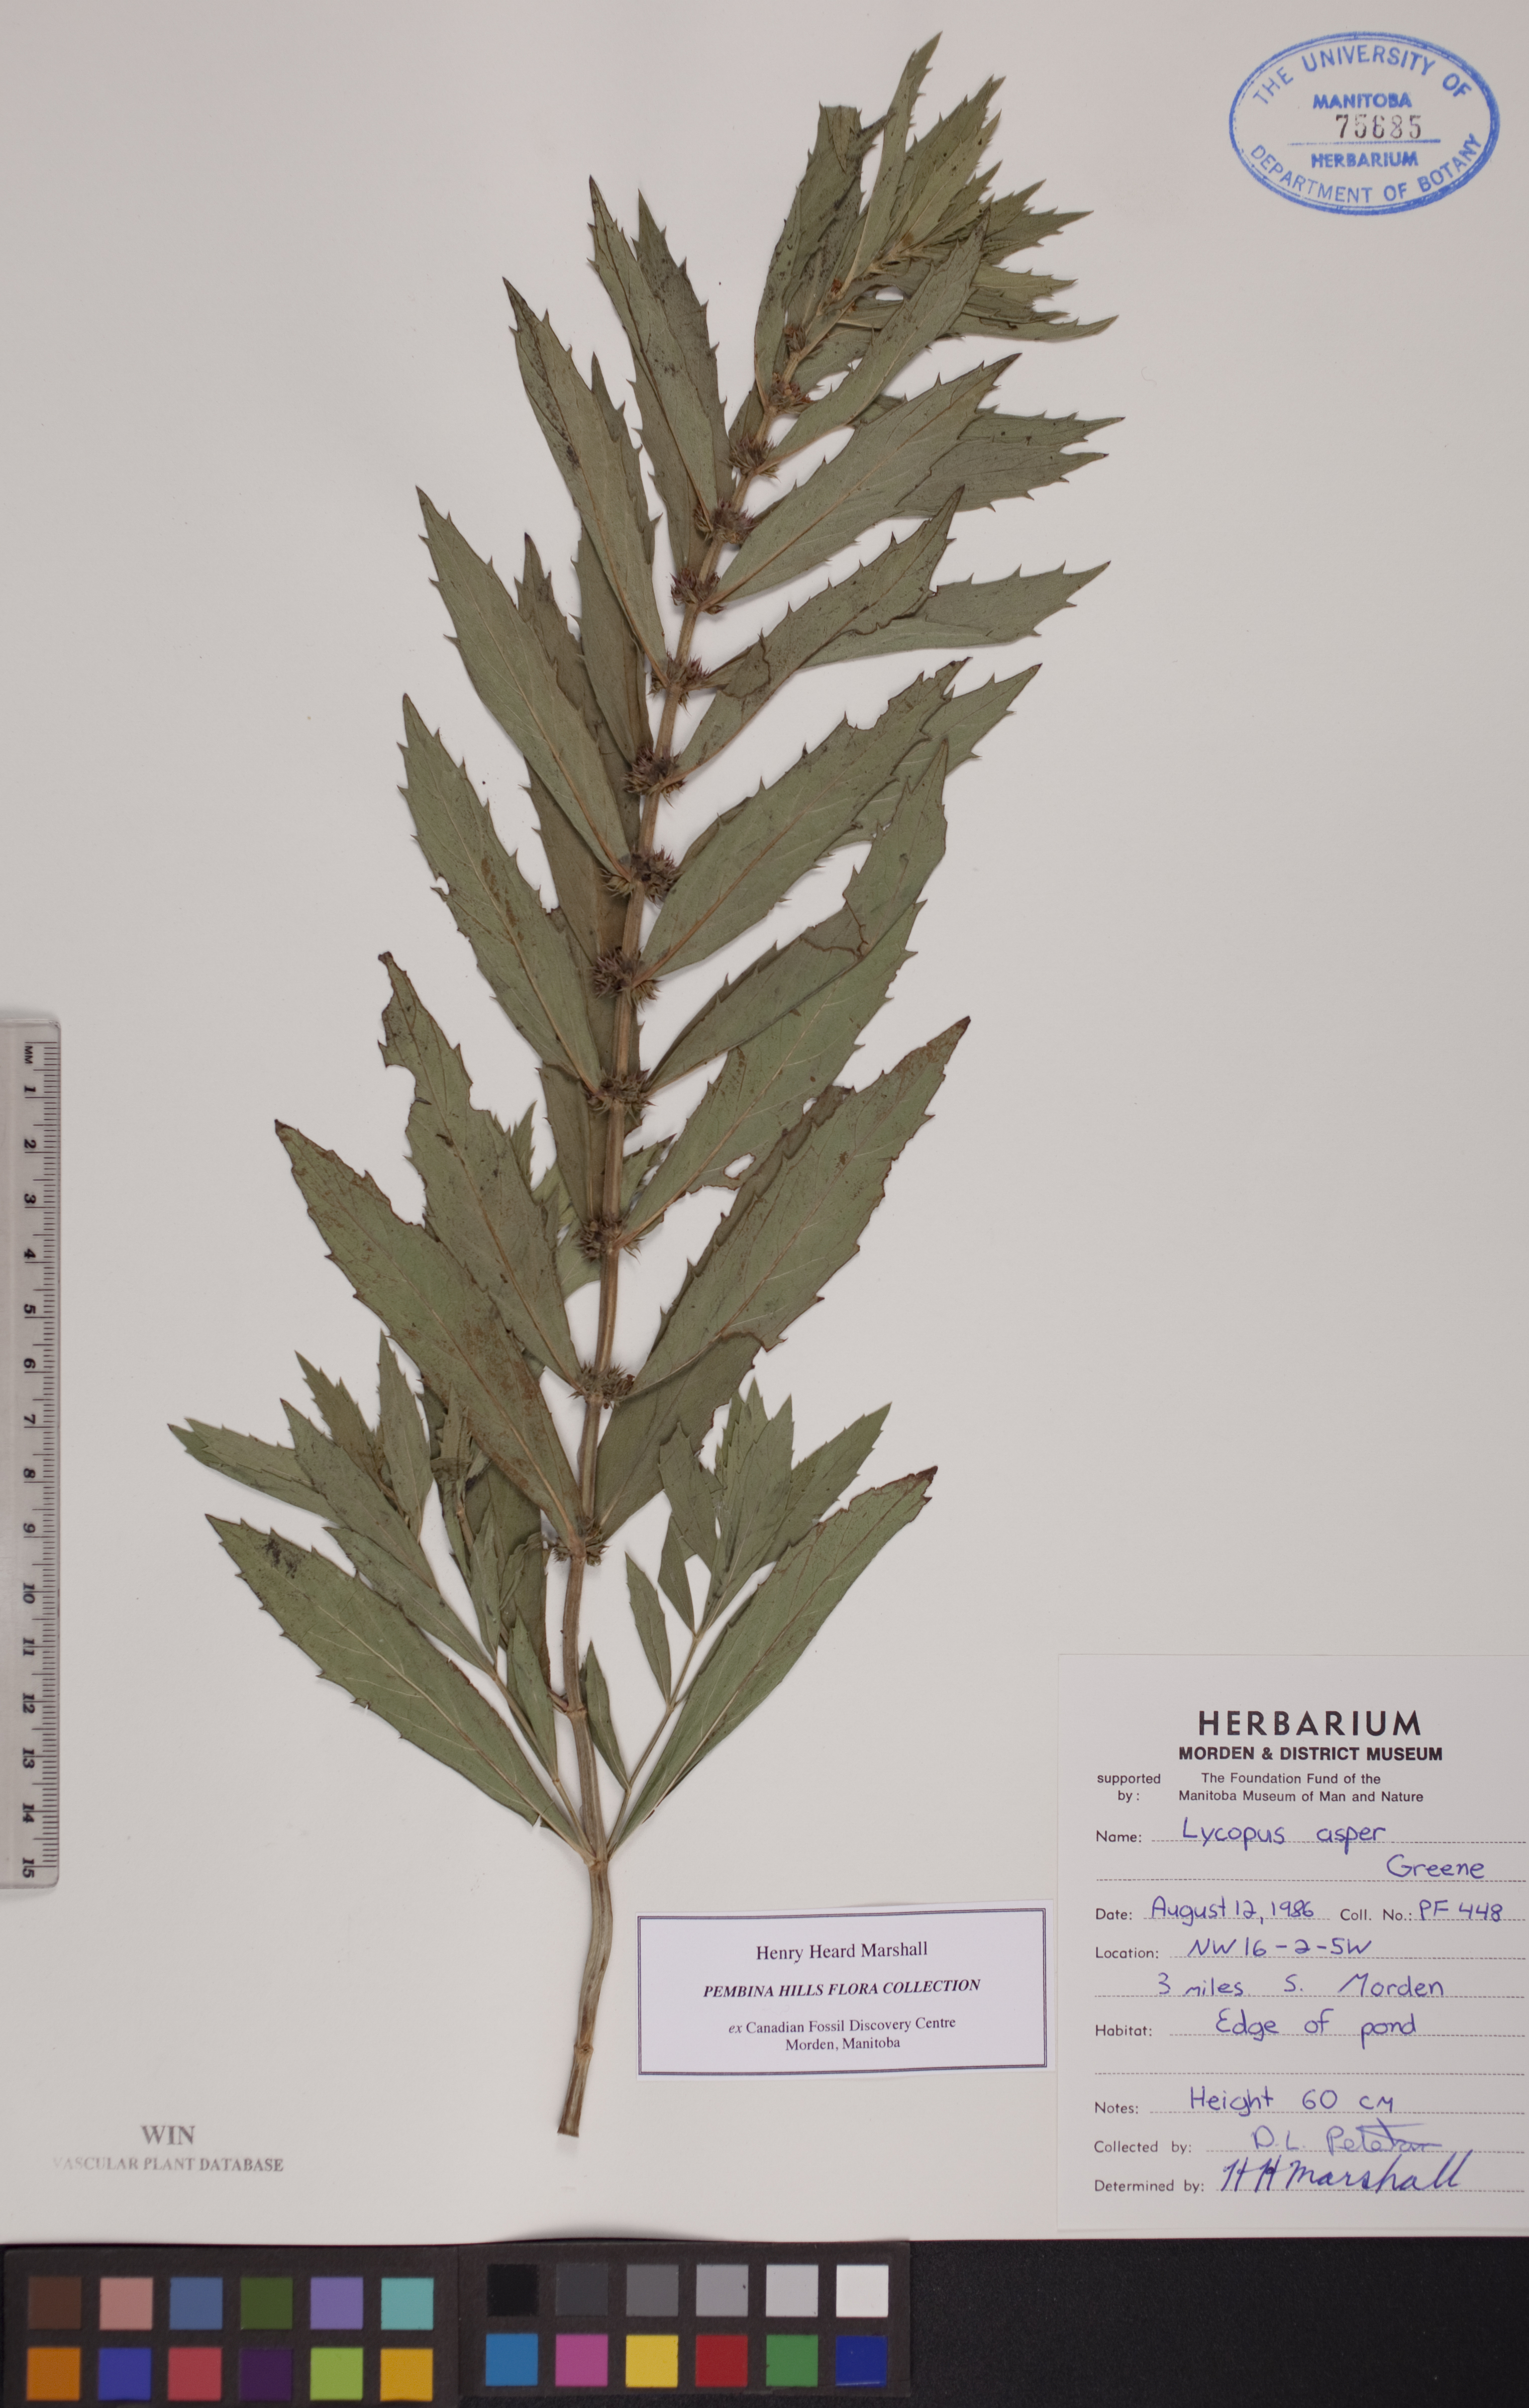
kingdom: Plantae
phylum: Tracheophyta
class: Magnoliopsida
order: Lamiales
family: Lamiaceae
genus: Lycopus
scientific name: Lycopus asper
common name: Rough water-horehound
